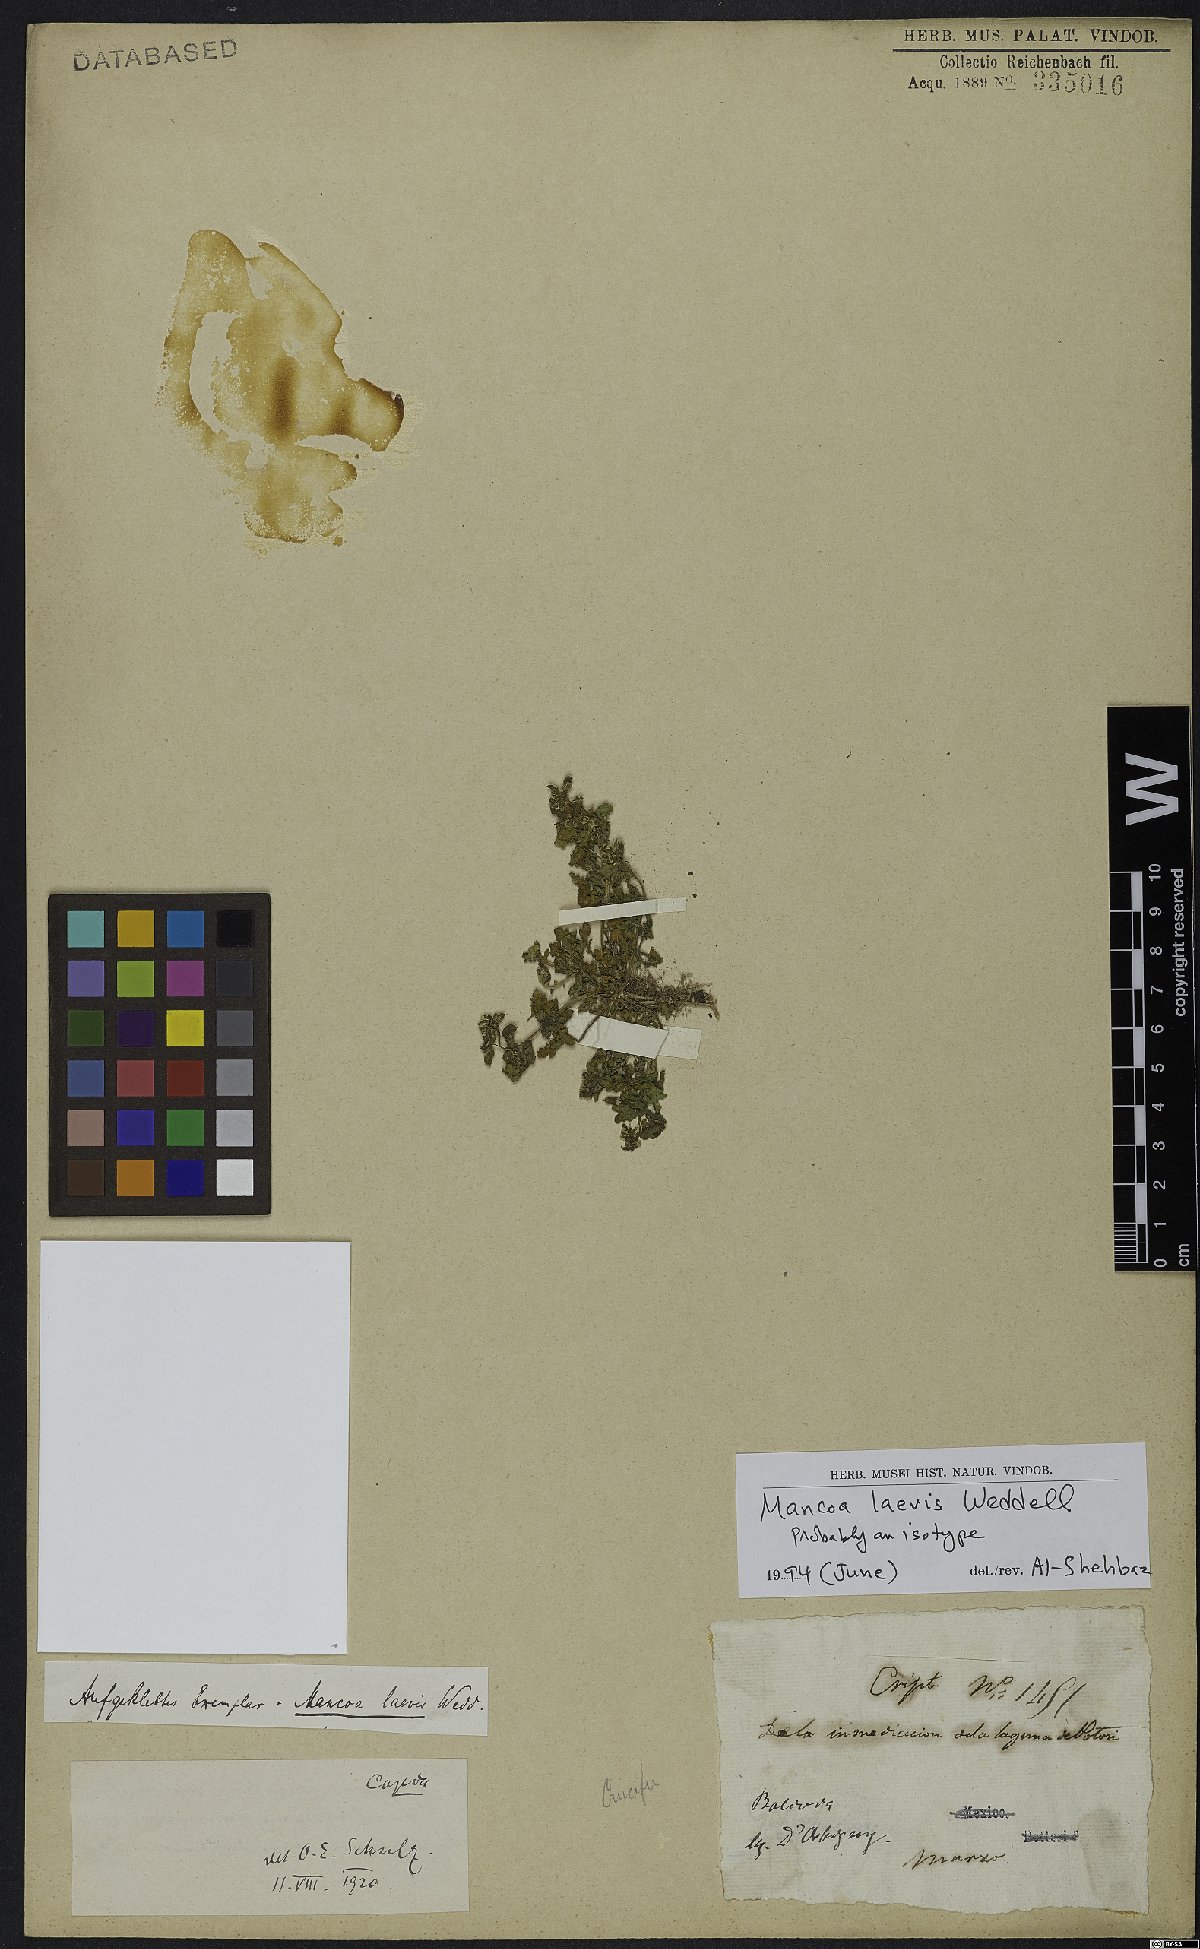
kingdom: Plantae
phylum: Tracheophyta
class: Magnoliopsida
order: Brassicales
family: Brassicaceae
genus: Mancoa
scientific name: Mancoa laevis
